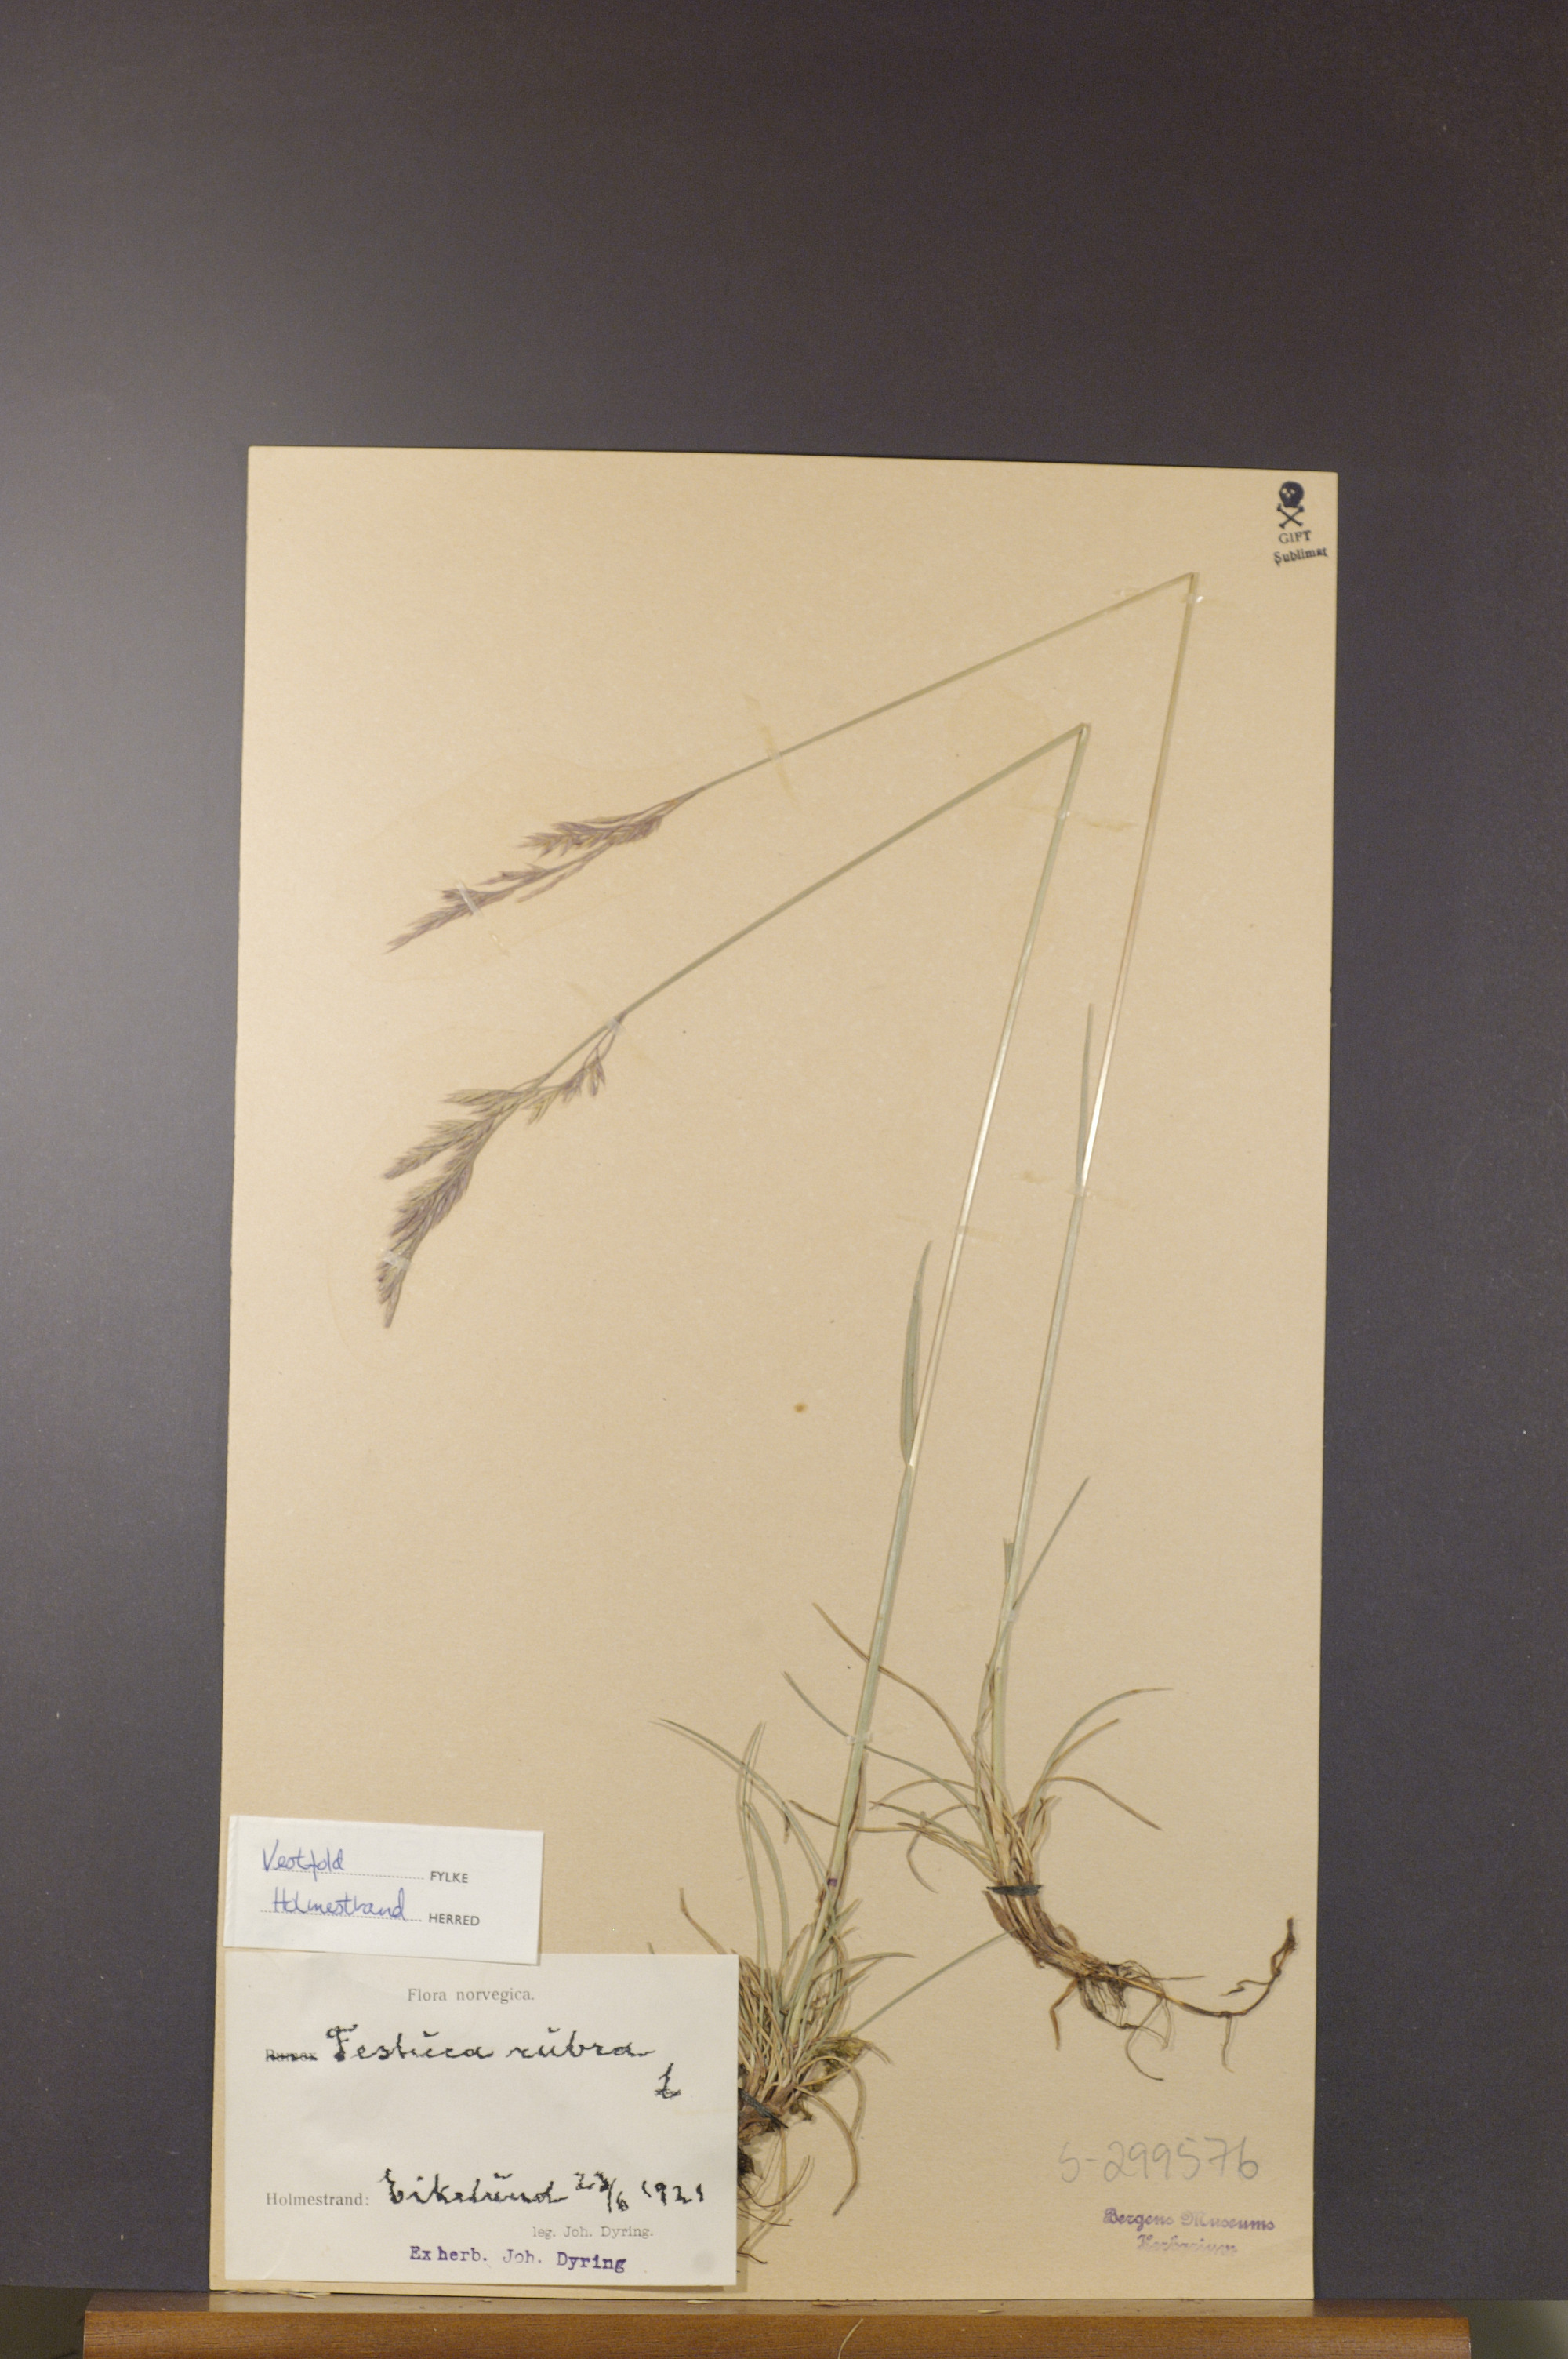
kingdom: Plantae
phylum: Tracheophyta
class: Liliopsida
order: Poales
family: Poaceae
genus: Festuca
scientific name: Festuca rubra
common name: Red fescue
